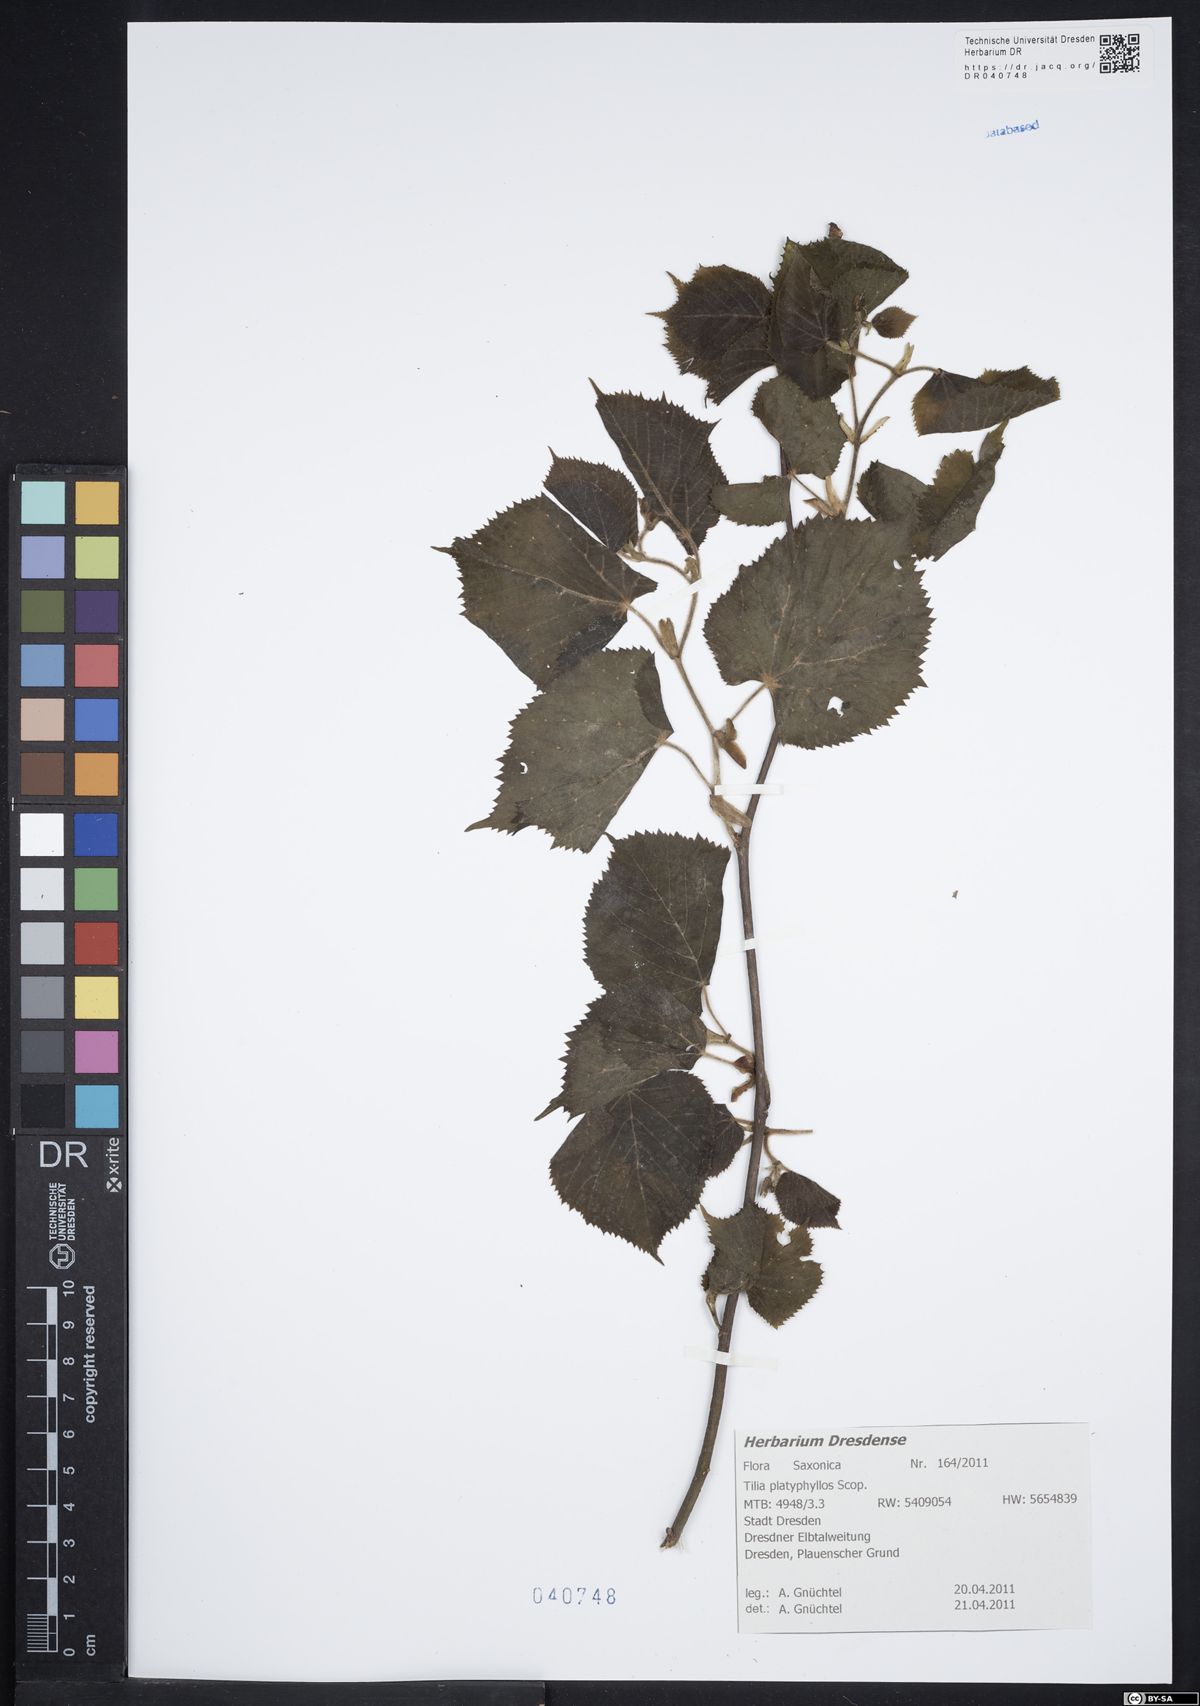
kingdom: Plantae
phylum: Tracheophyta
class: Magnoliopsida
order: Malvales
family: Malvaceae
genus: Tilia
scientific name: Tilia platyphyllos
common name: Large-leaved lime
